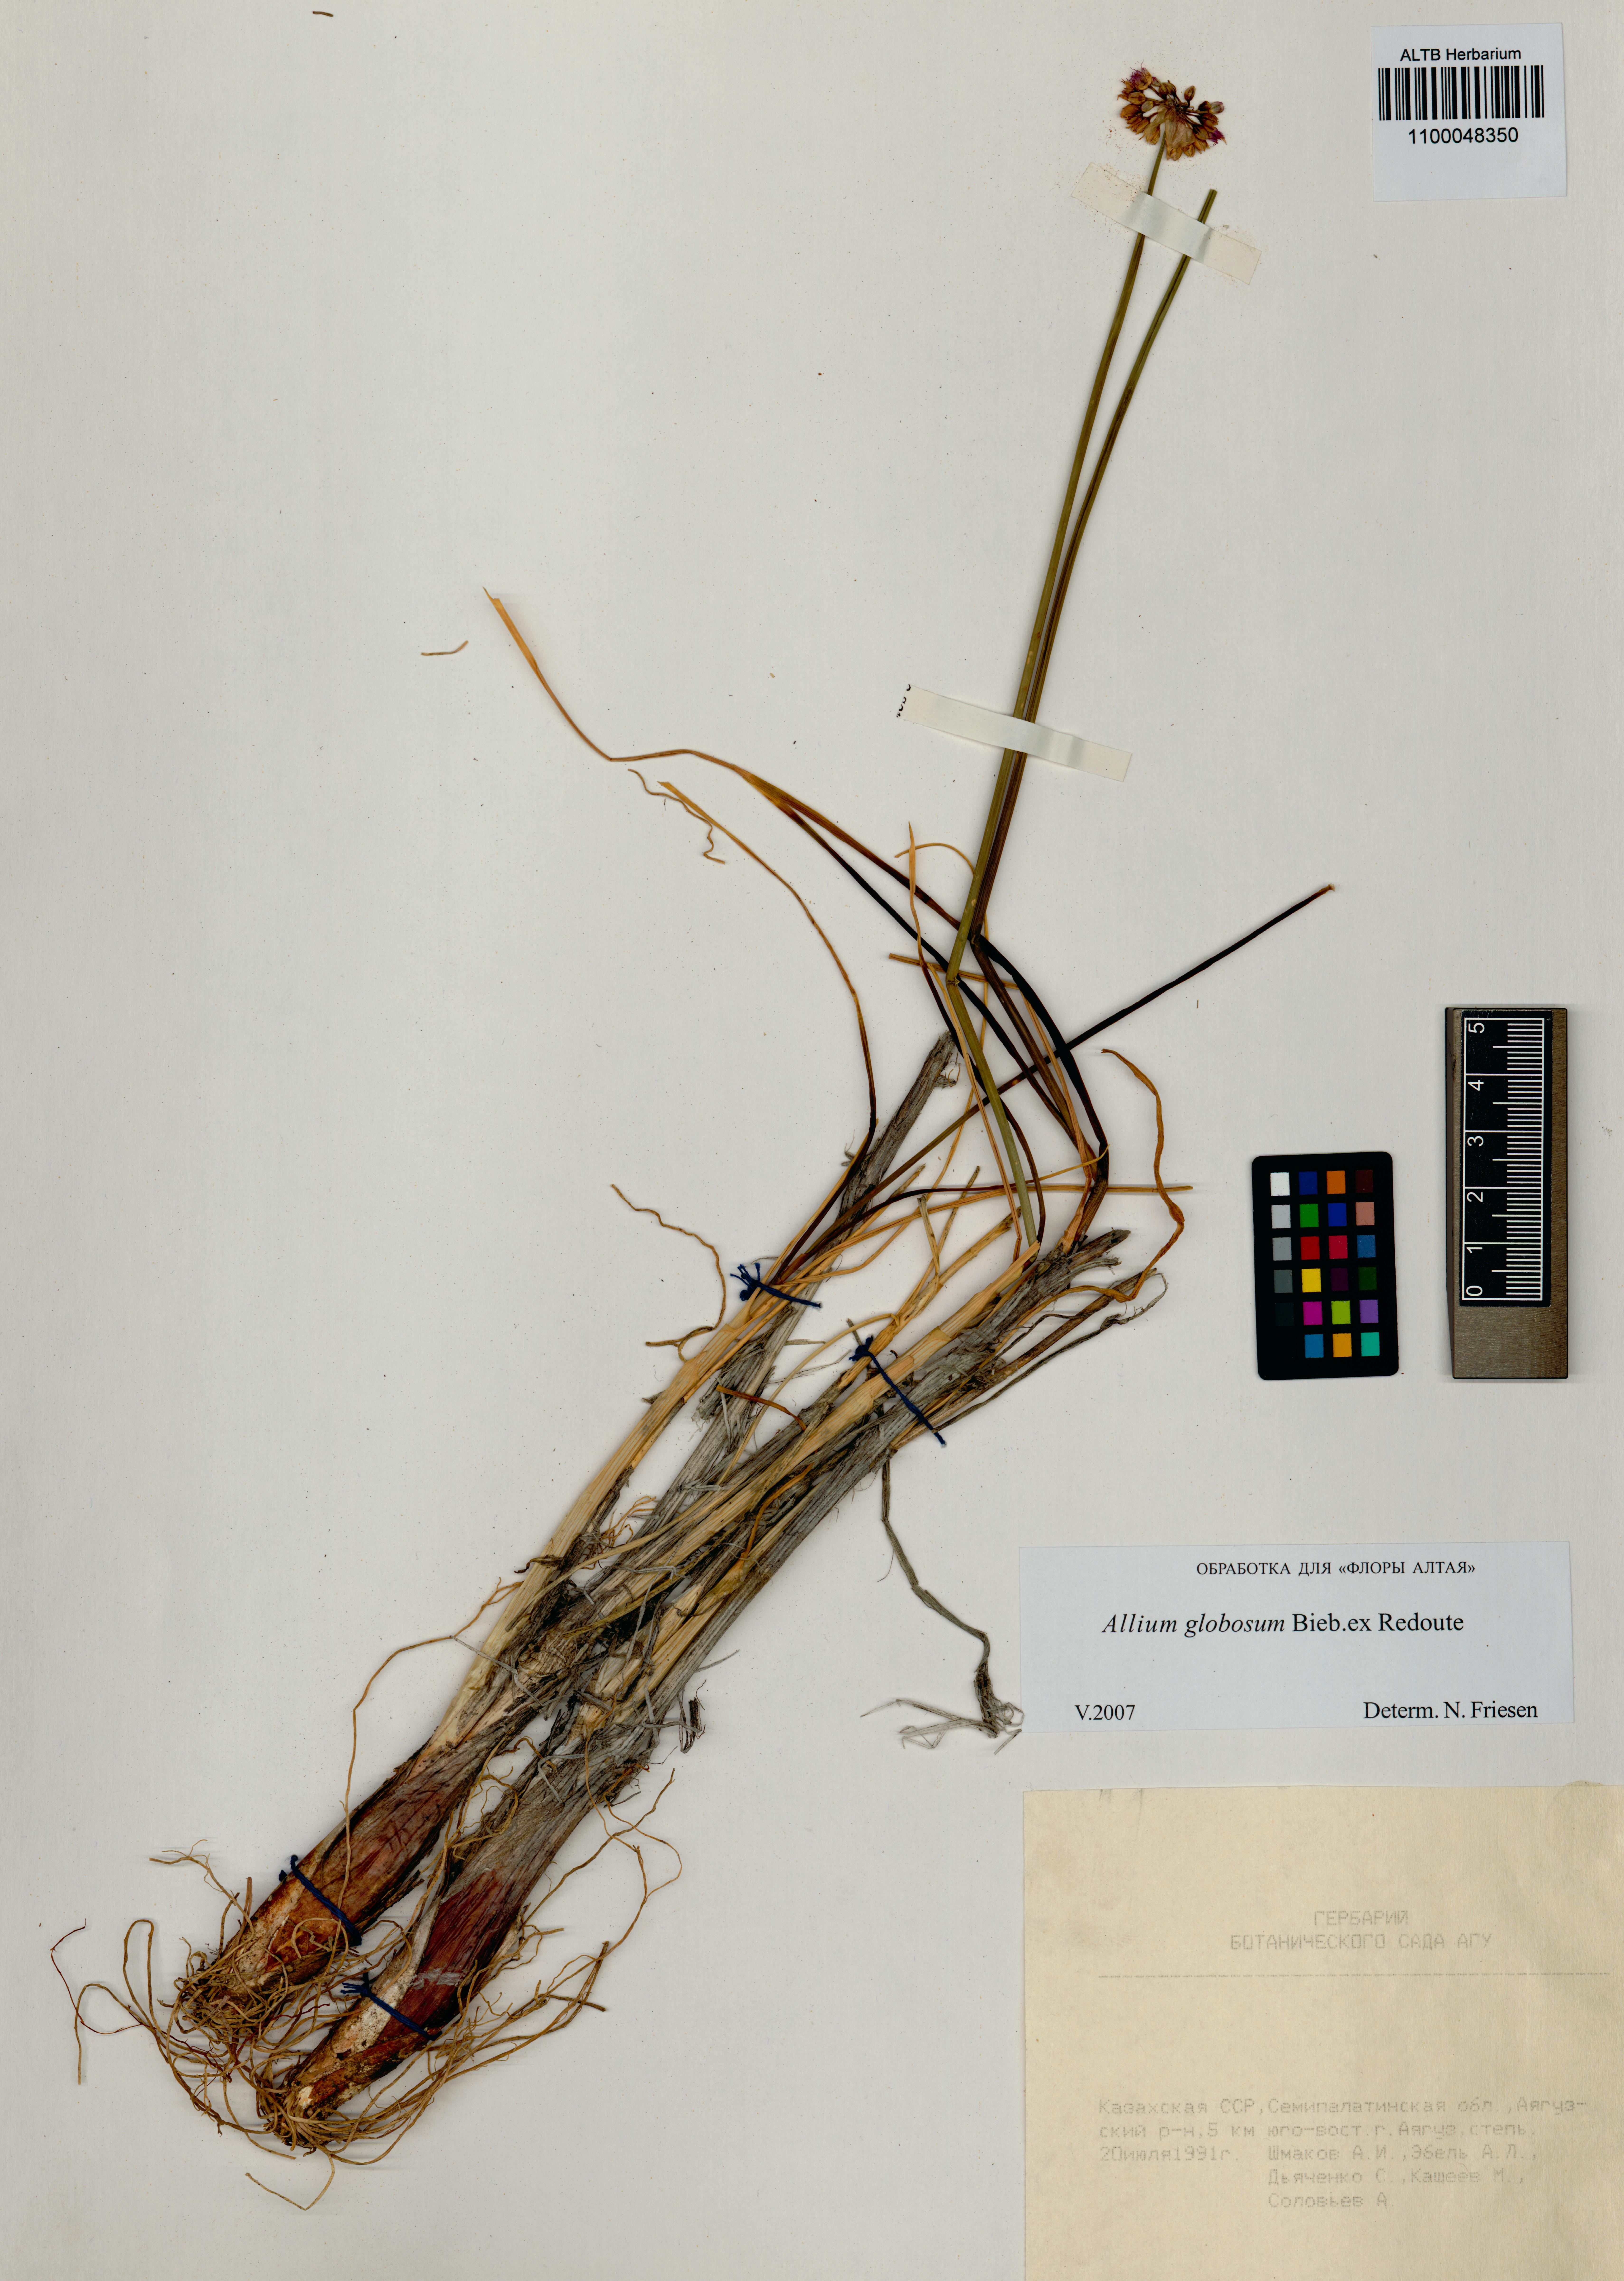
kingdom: Plantae
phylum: Tracheophyta
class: Liliopsida
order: Asparagales
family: Amaryllidaceae
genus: Allium
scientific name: Allium saxatile
